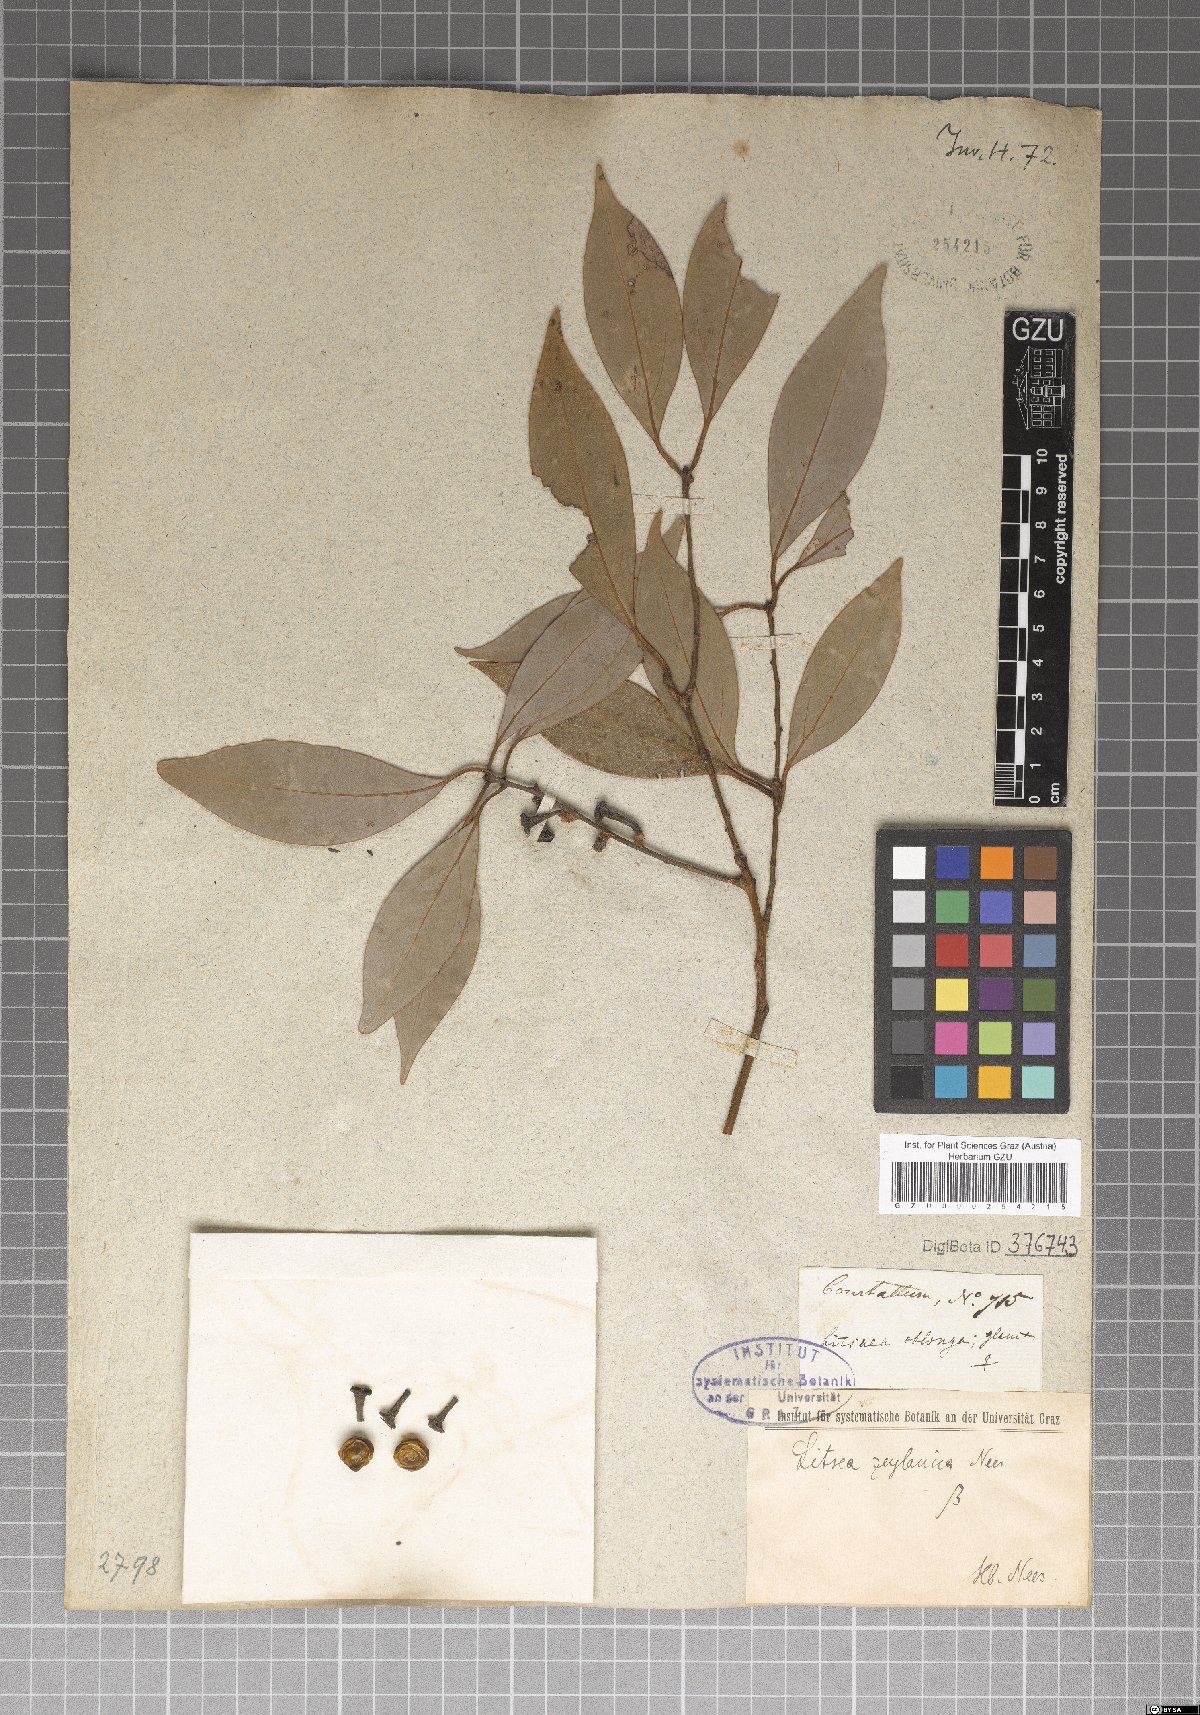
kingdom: Plantae
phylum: Tracheophyta
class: Magnoliopsida
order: Laurales
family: Lauraceae
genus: Neolitsea
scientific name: Neolitsea cassia
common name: Laurel
